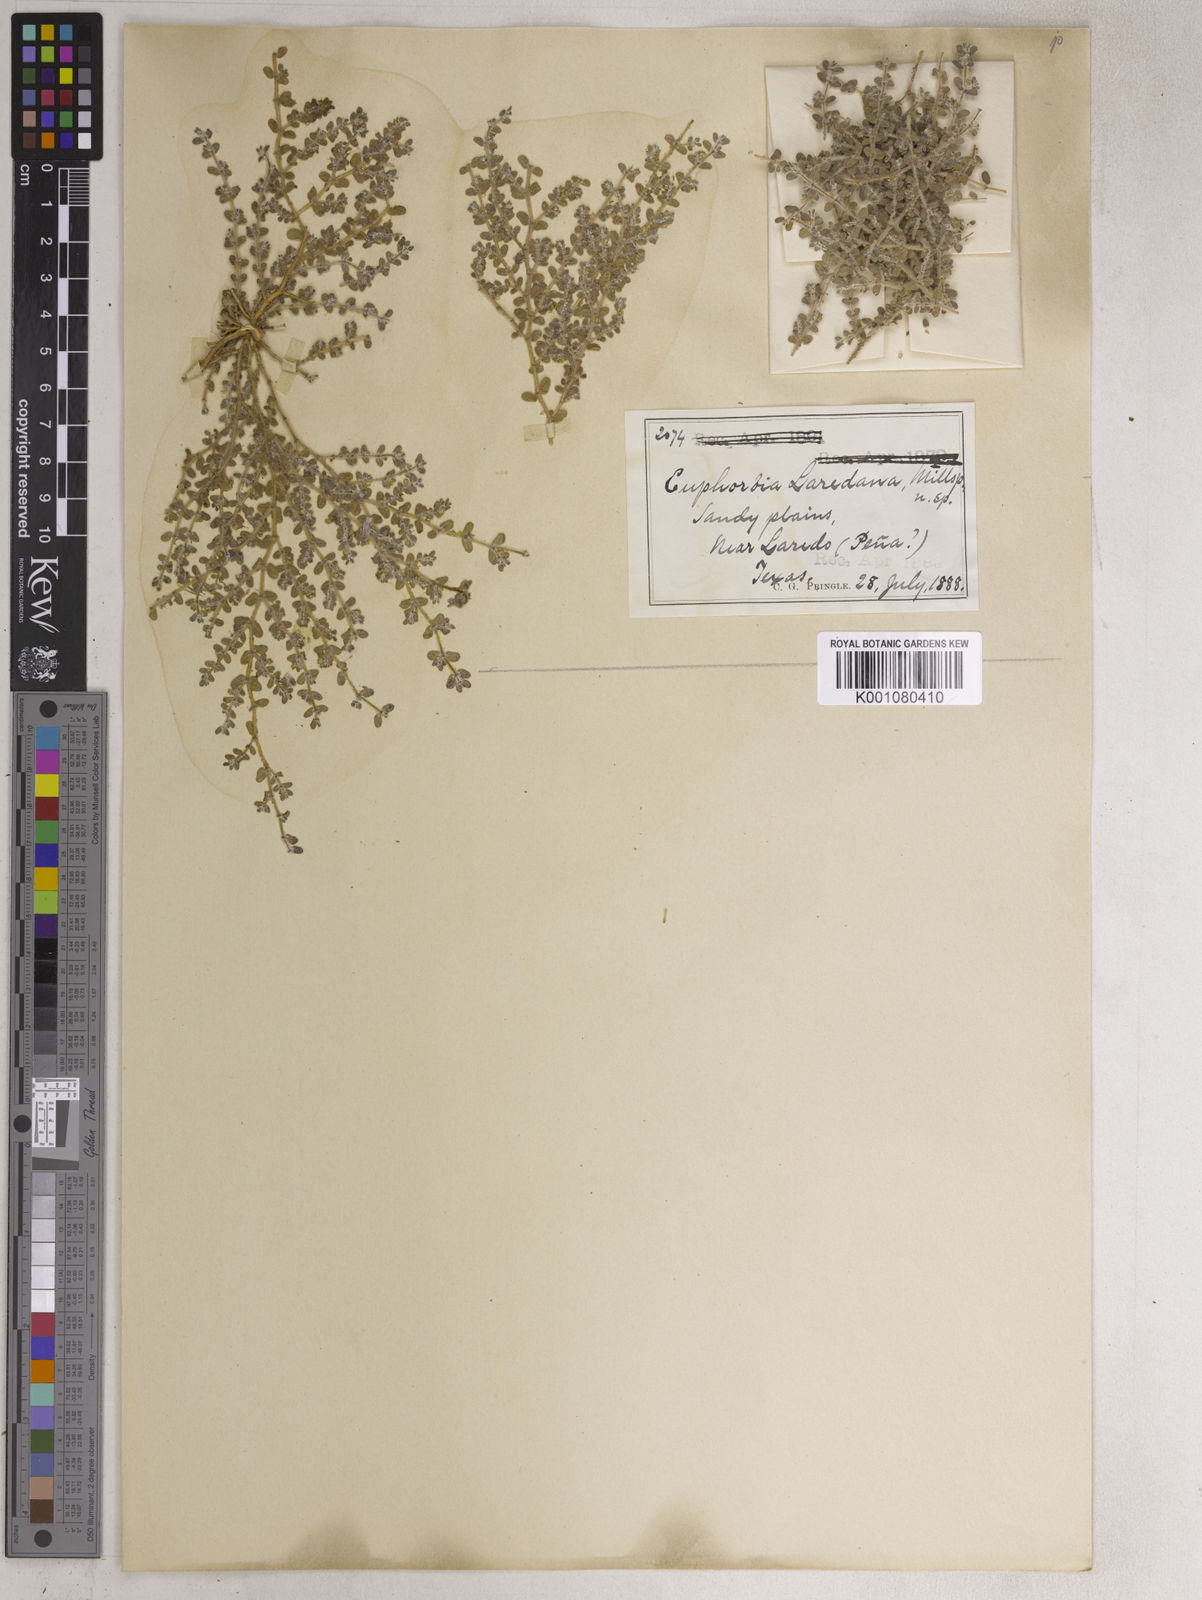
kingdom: Plantae
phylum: Tracheophyta
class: Magnoliopsida
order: Malpighiales
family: Euphorbiaceae
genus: Euphorbia
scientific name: Euphorbia laredana
